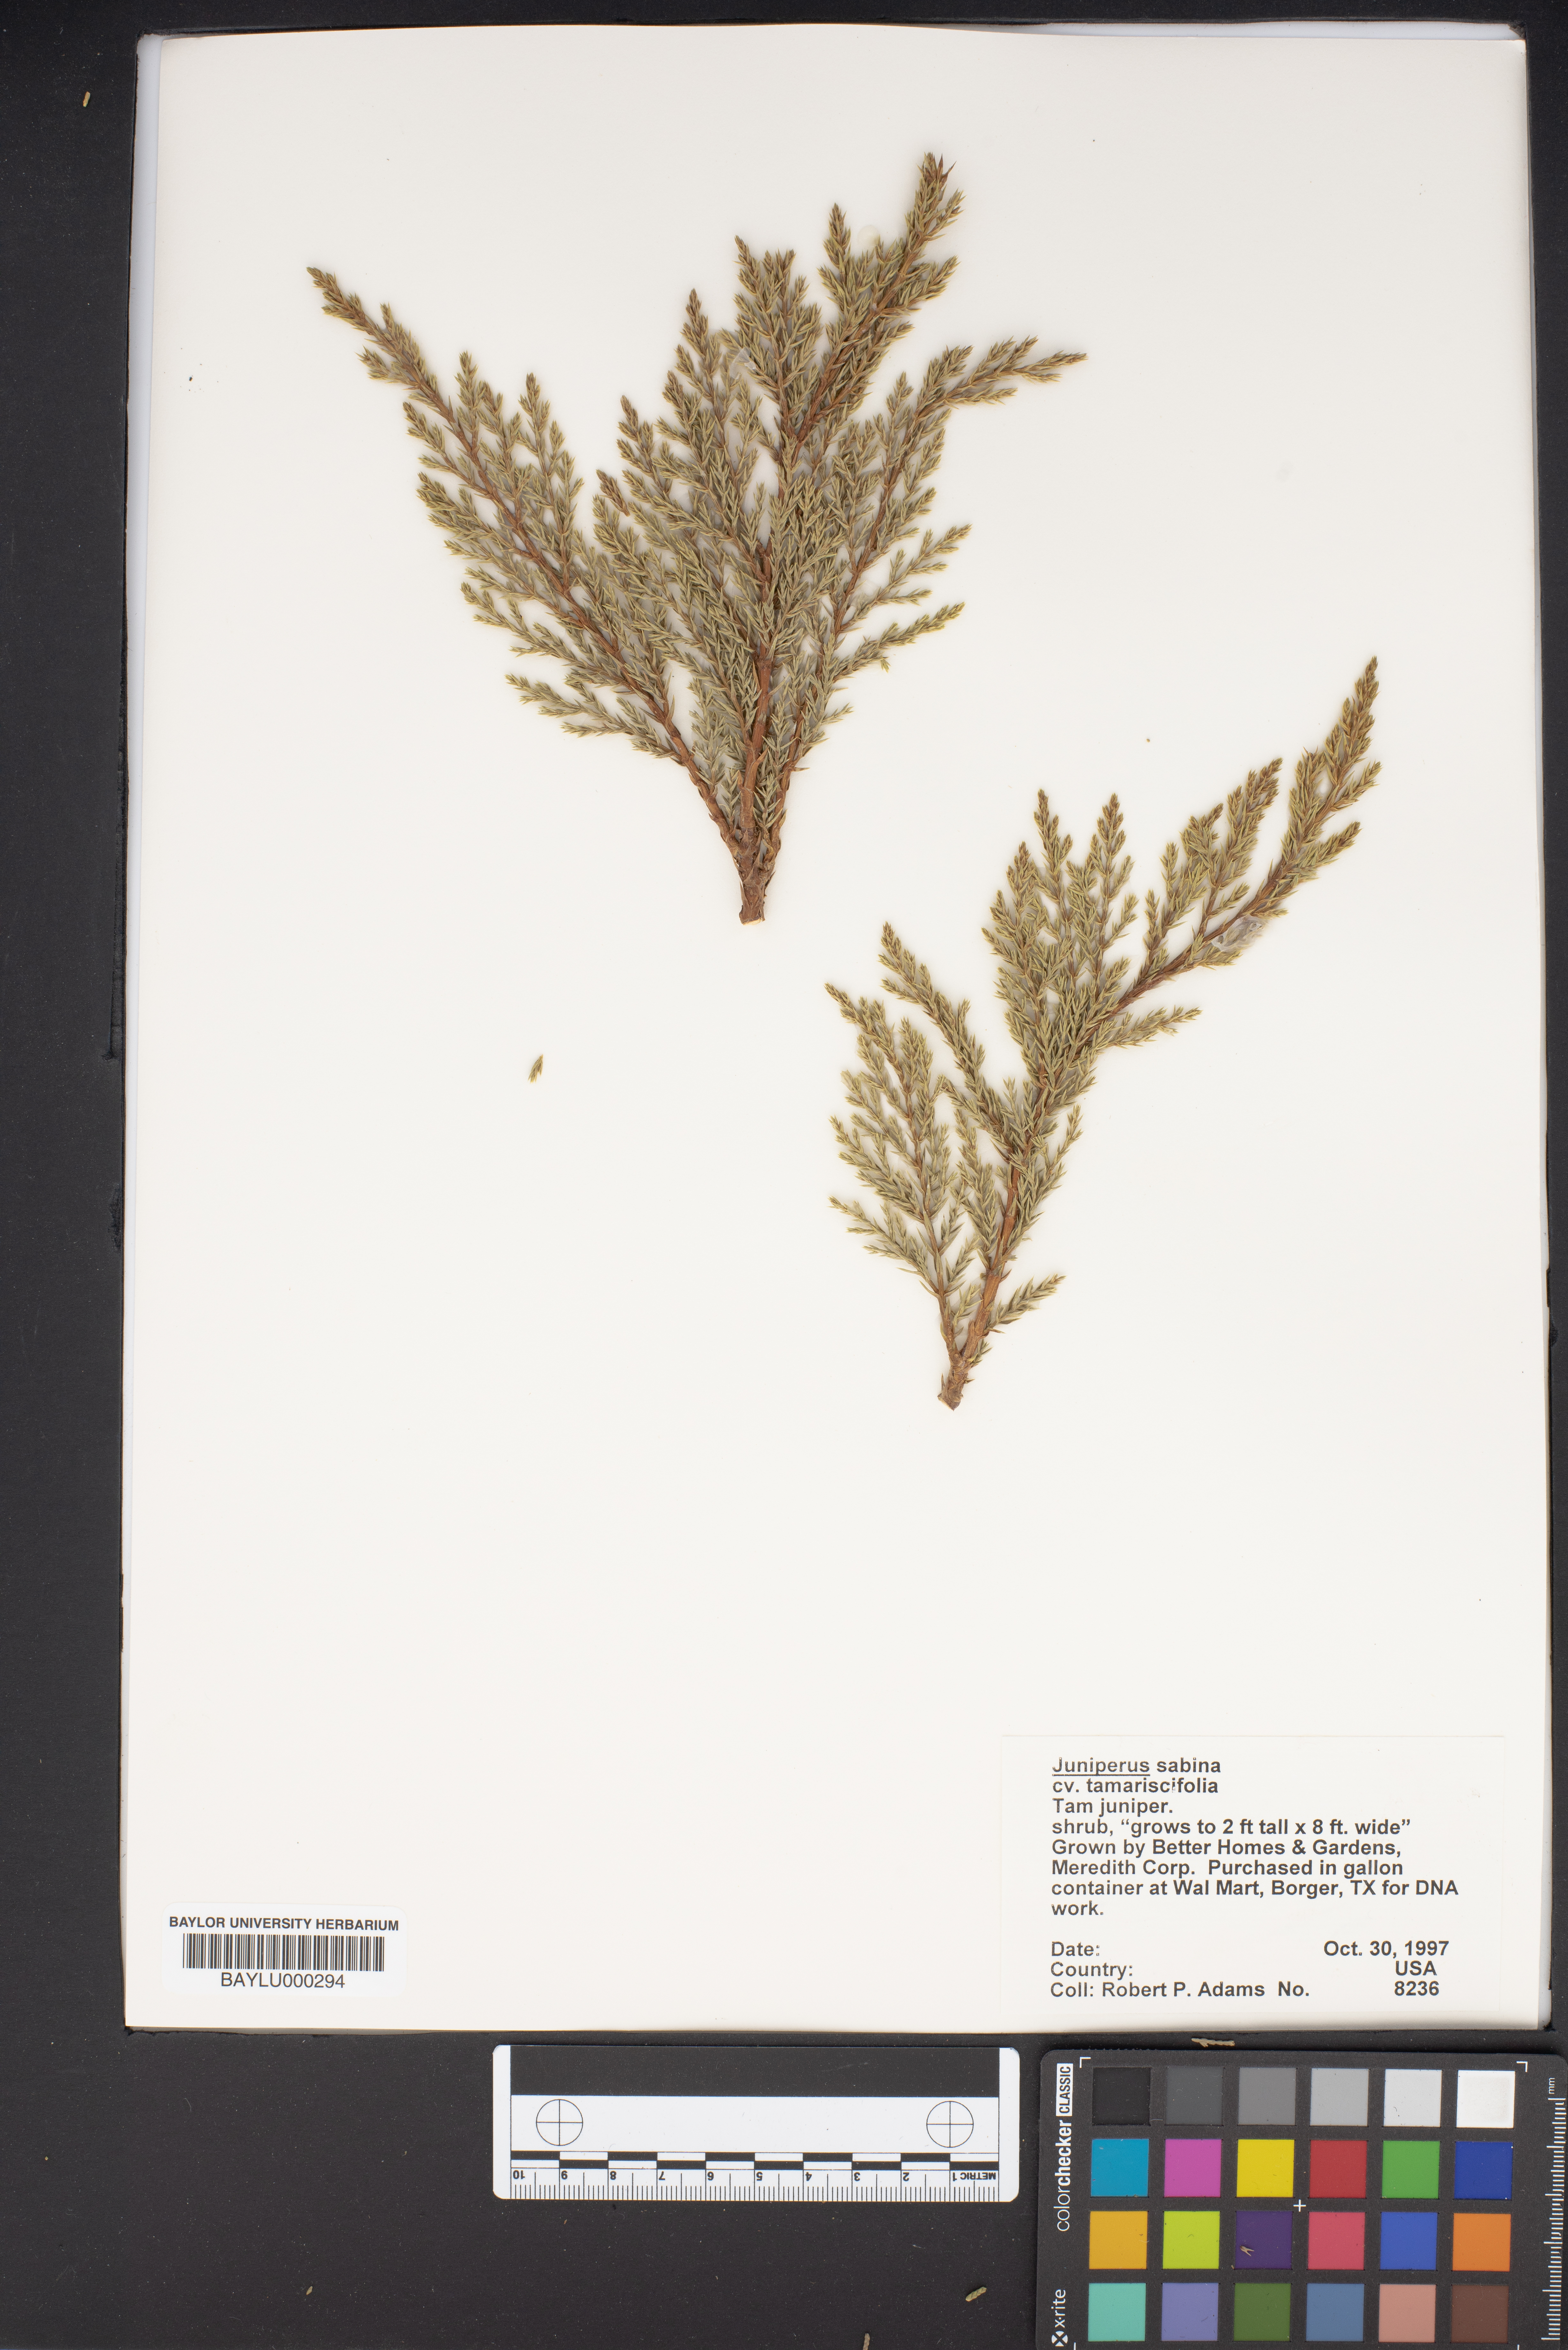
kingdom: Plantae
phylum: Tracheophyta
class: Pinopsida
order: Pinales
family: Cupressaceae
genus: Juniperus
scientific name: Juniperus sabina
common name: Savin
